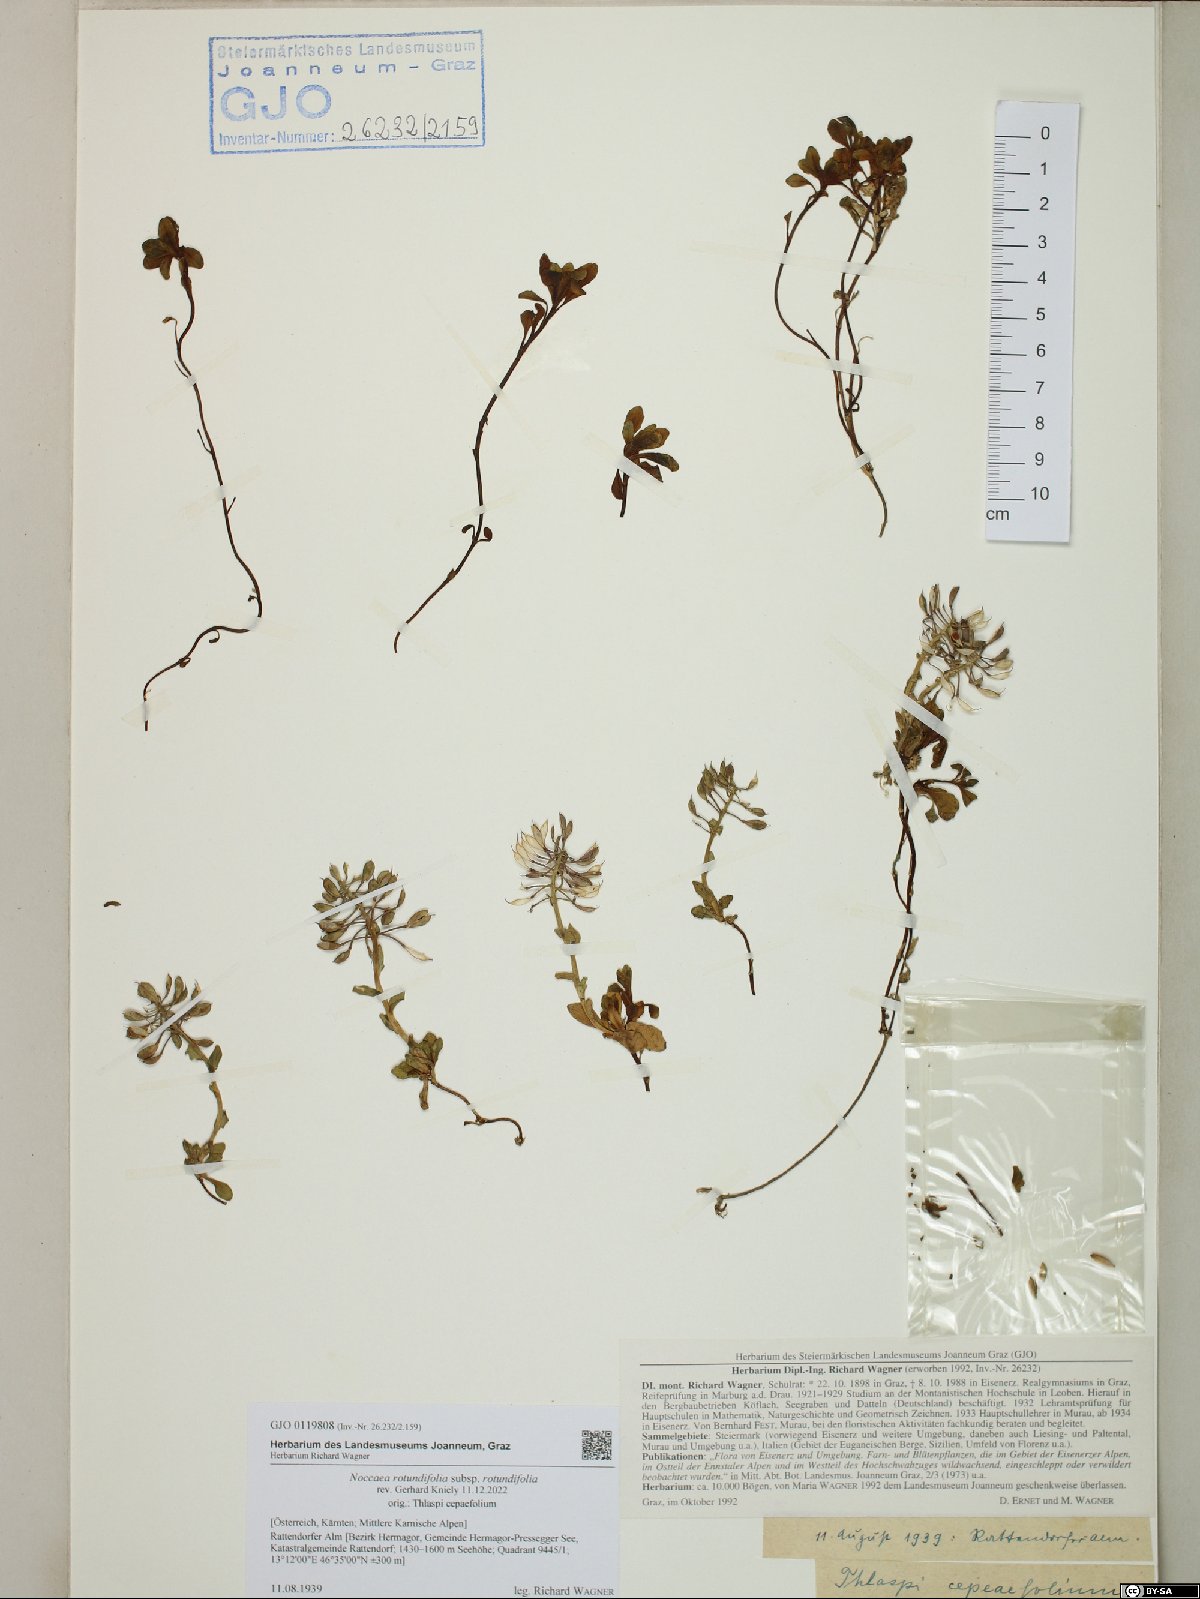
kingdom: Plantae
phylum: Tracheophyta
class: Magnoliopsida
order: Brassicales
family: Brassicaceae
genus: Noccaea
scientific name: Noccaea rotundifolia
